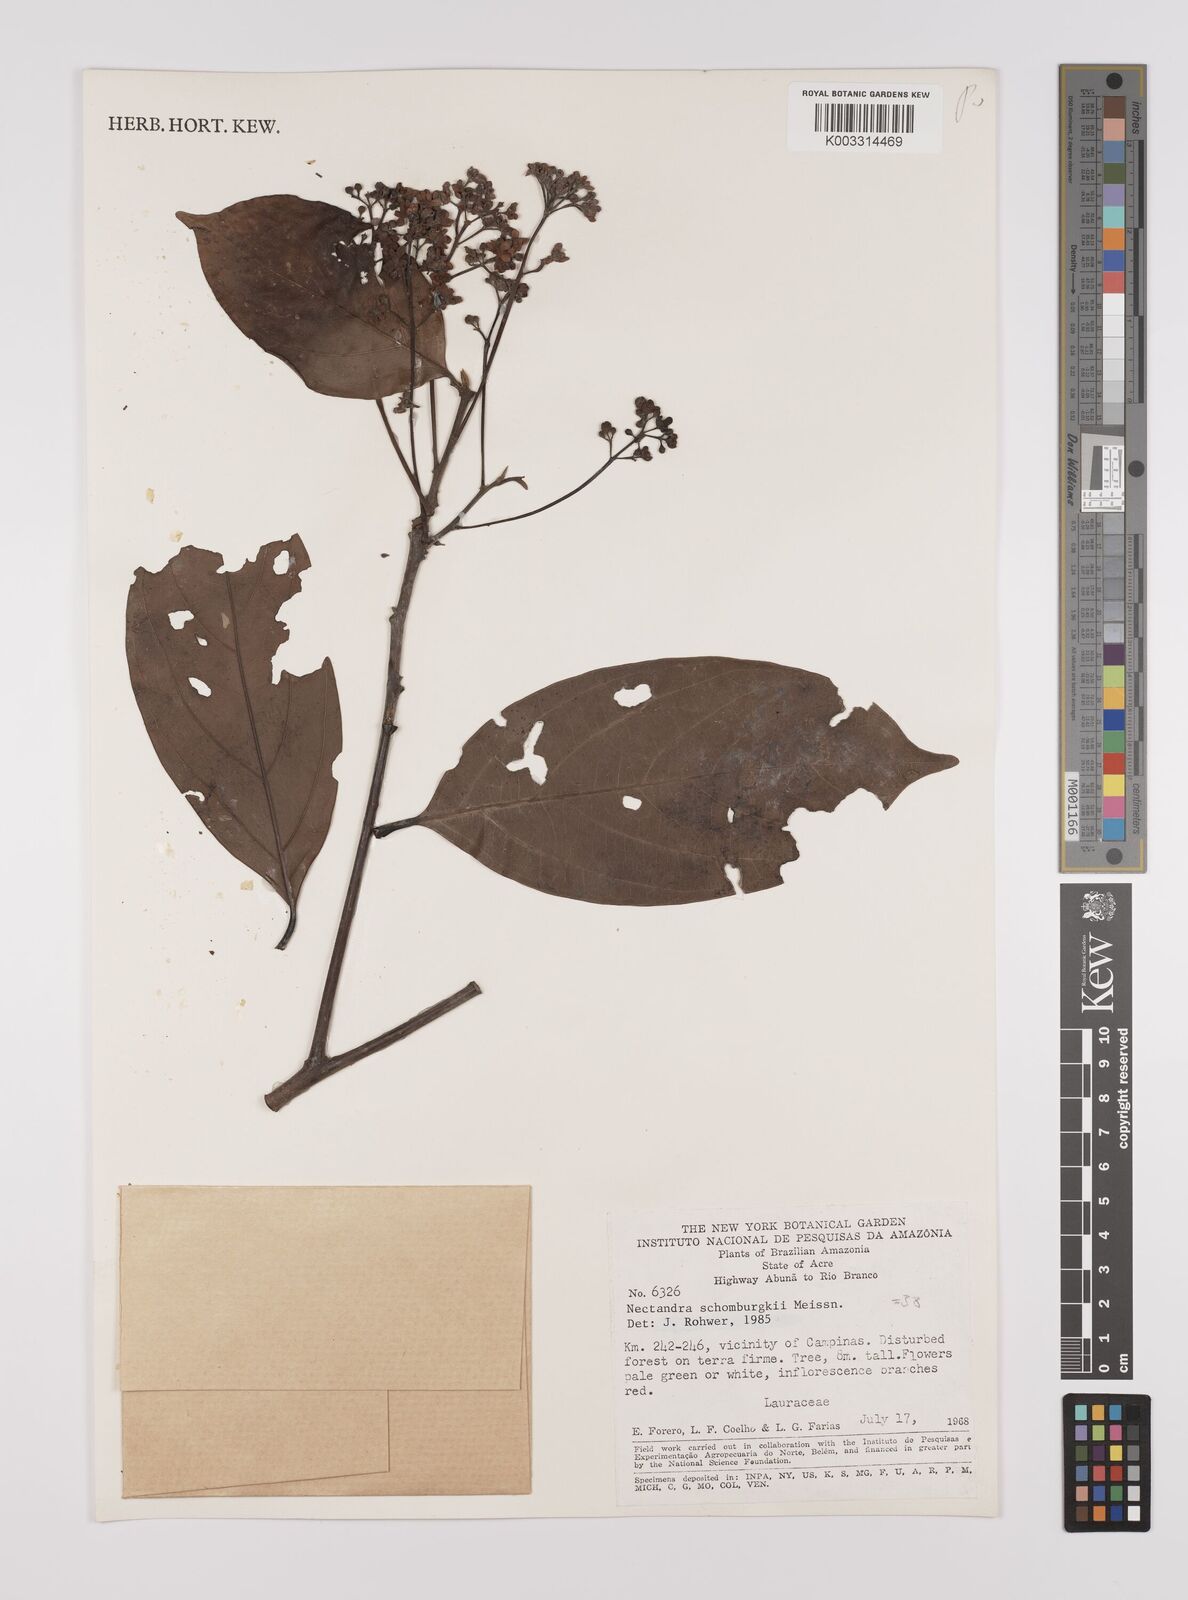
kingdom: Plantae
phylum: Tracheophyta
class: Magnoliopsida
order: Laurales
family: Lauraceae
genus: Endlicheria
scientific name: Endlicheria paniculata
